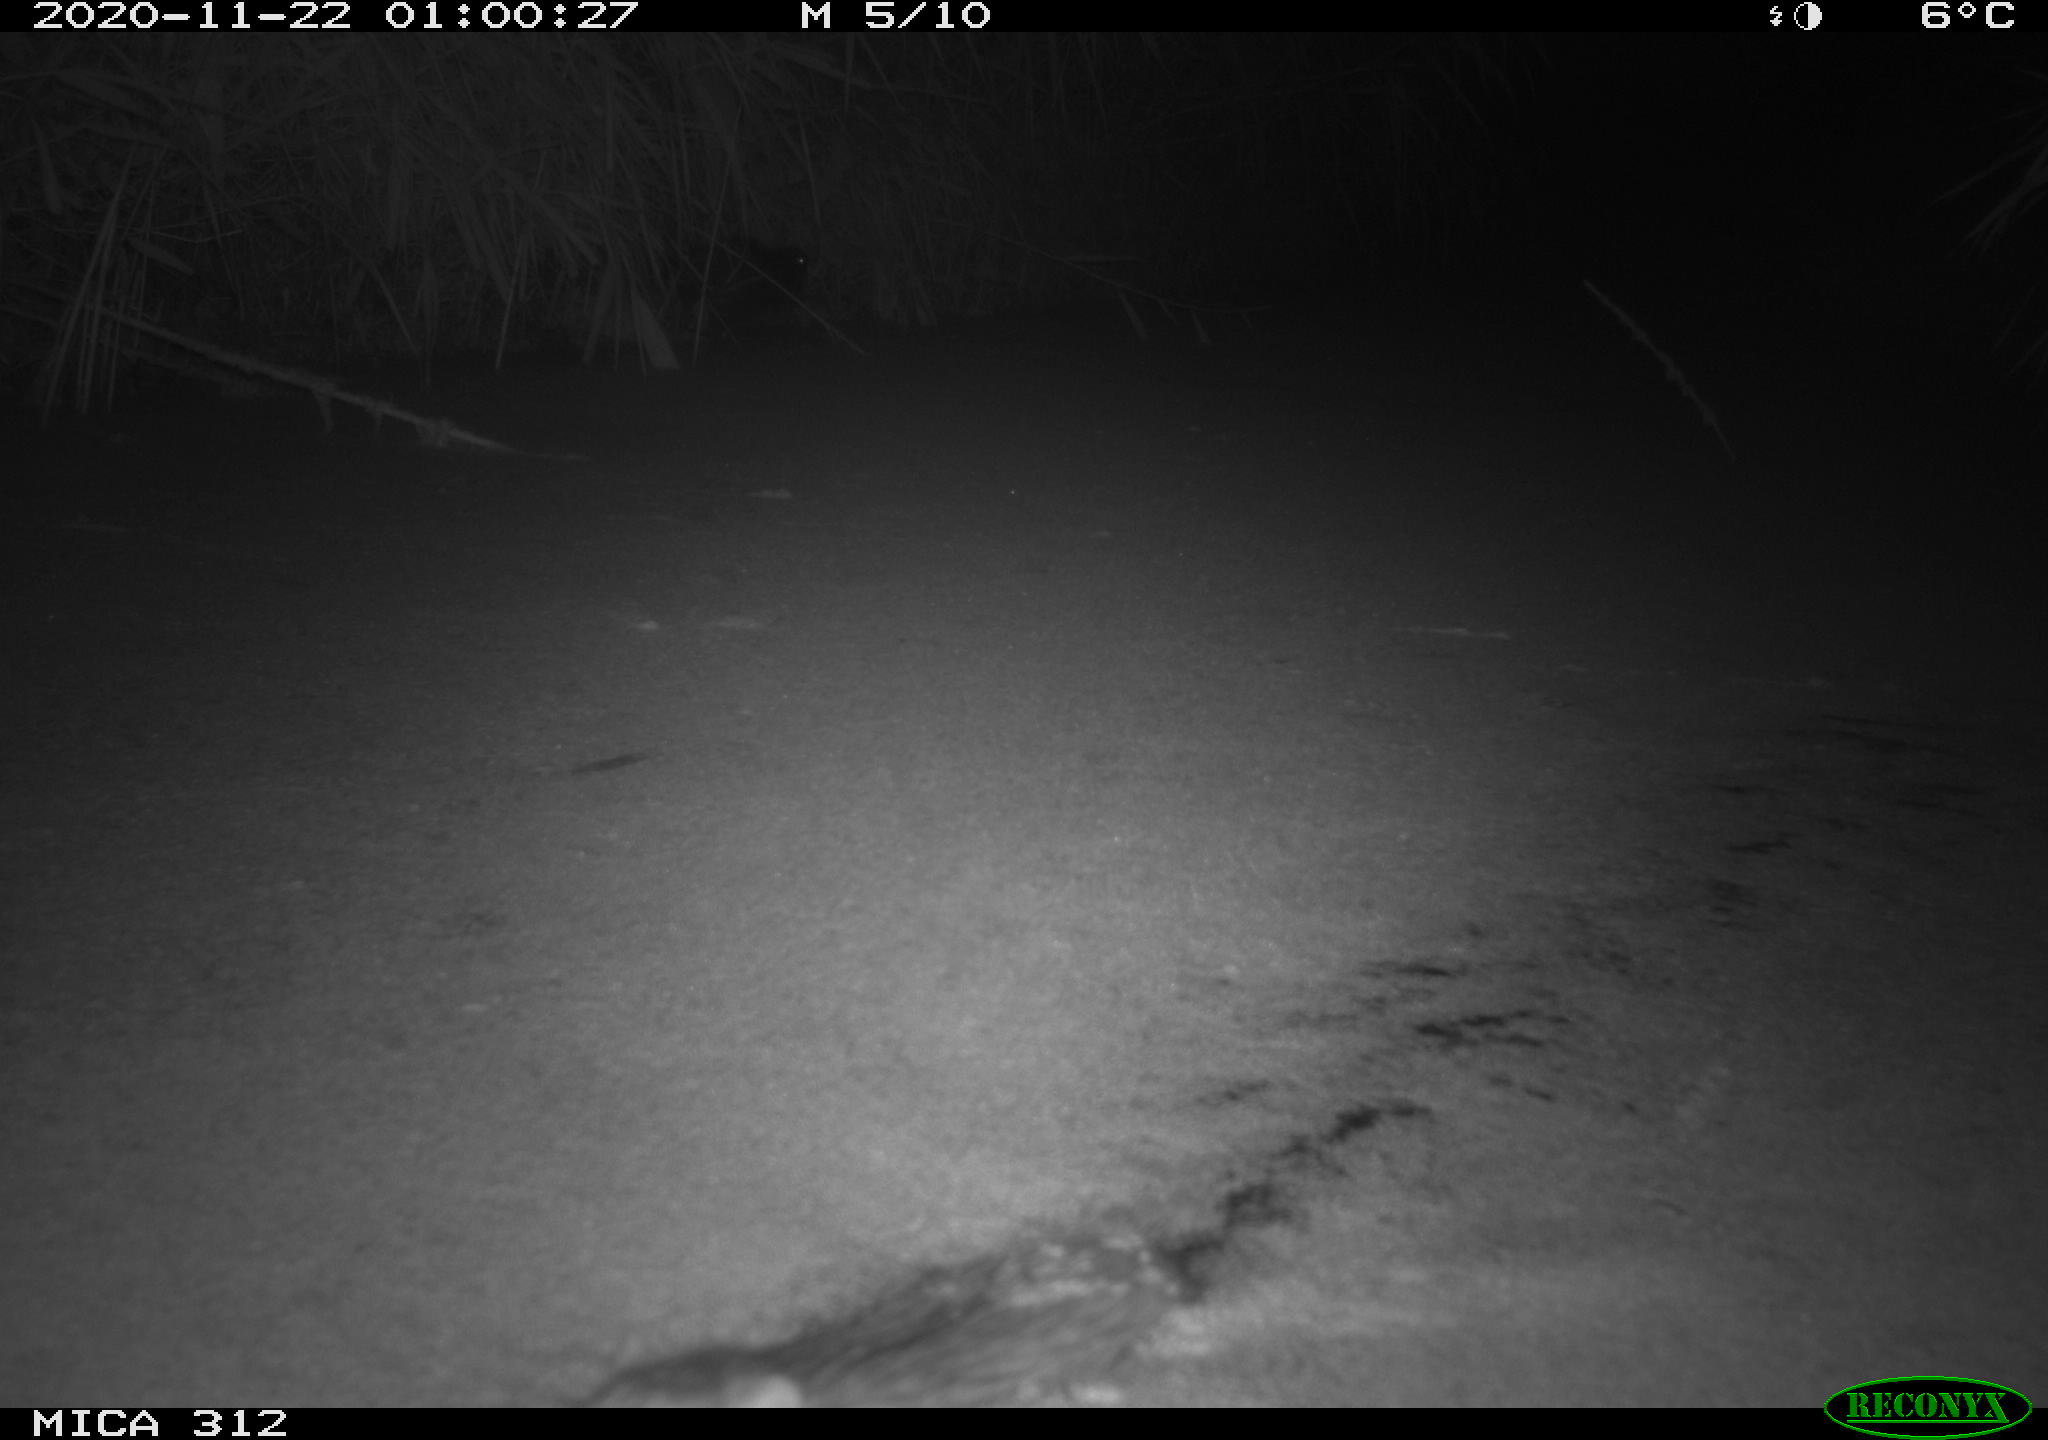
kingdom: Animalia
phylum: Chordata
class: Mammalia
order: Rodentia
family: Muridae
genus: Rattus
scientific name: Rattus norvegicus
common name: Brown rat
